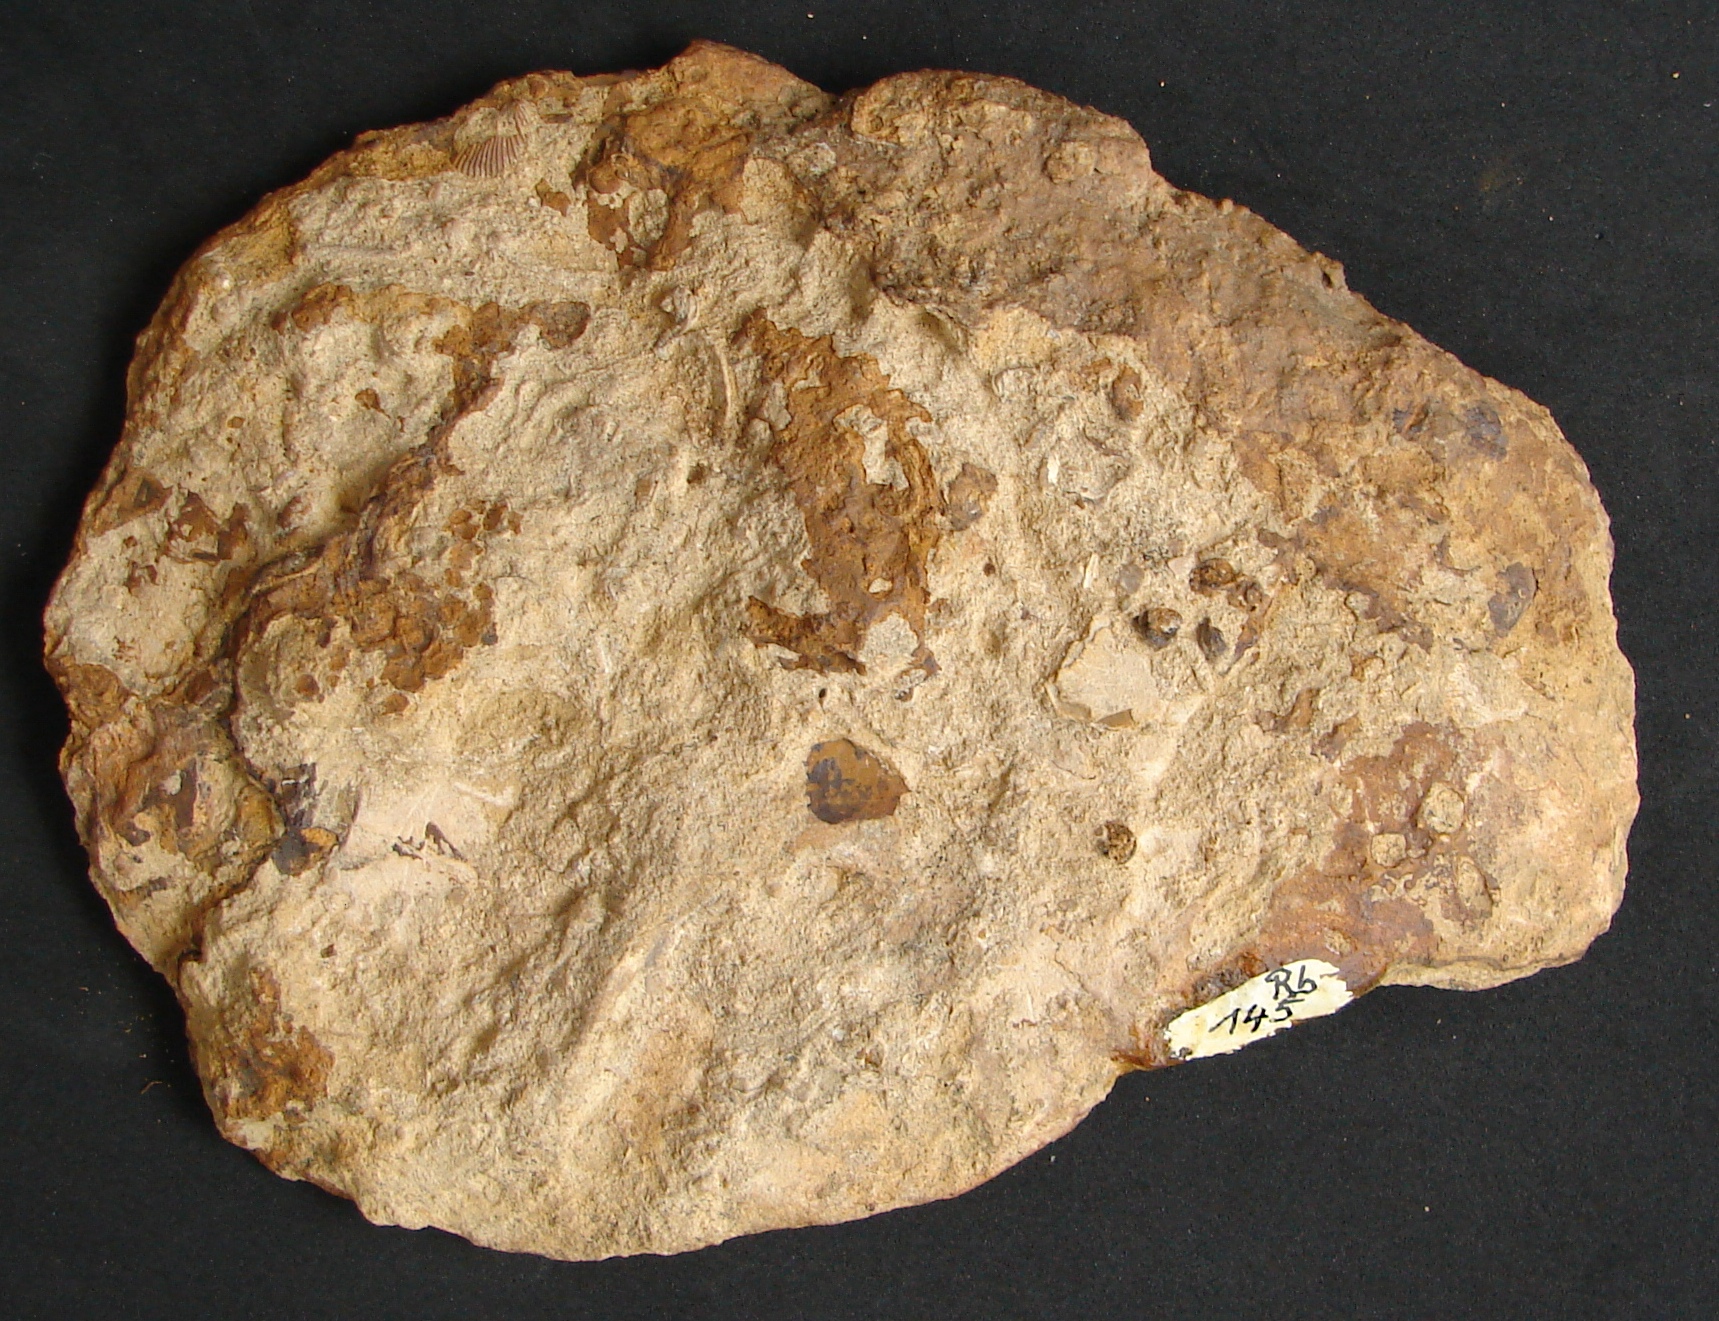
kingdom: Animalia
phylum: Mollusca
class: Bivalvia
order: Ostreida
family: Ostreidae
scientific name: Ostreidae
